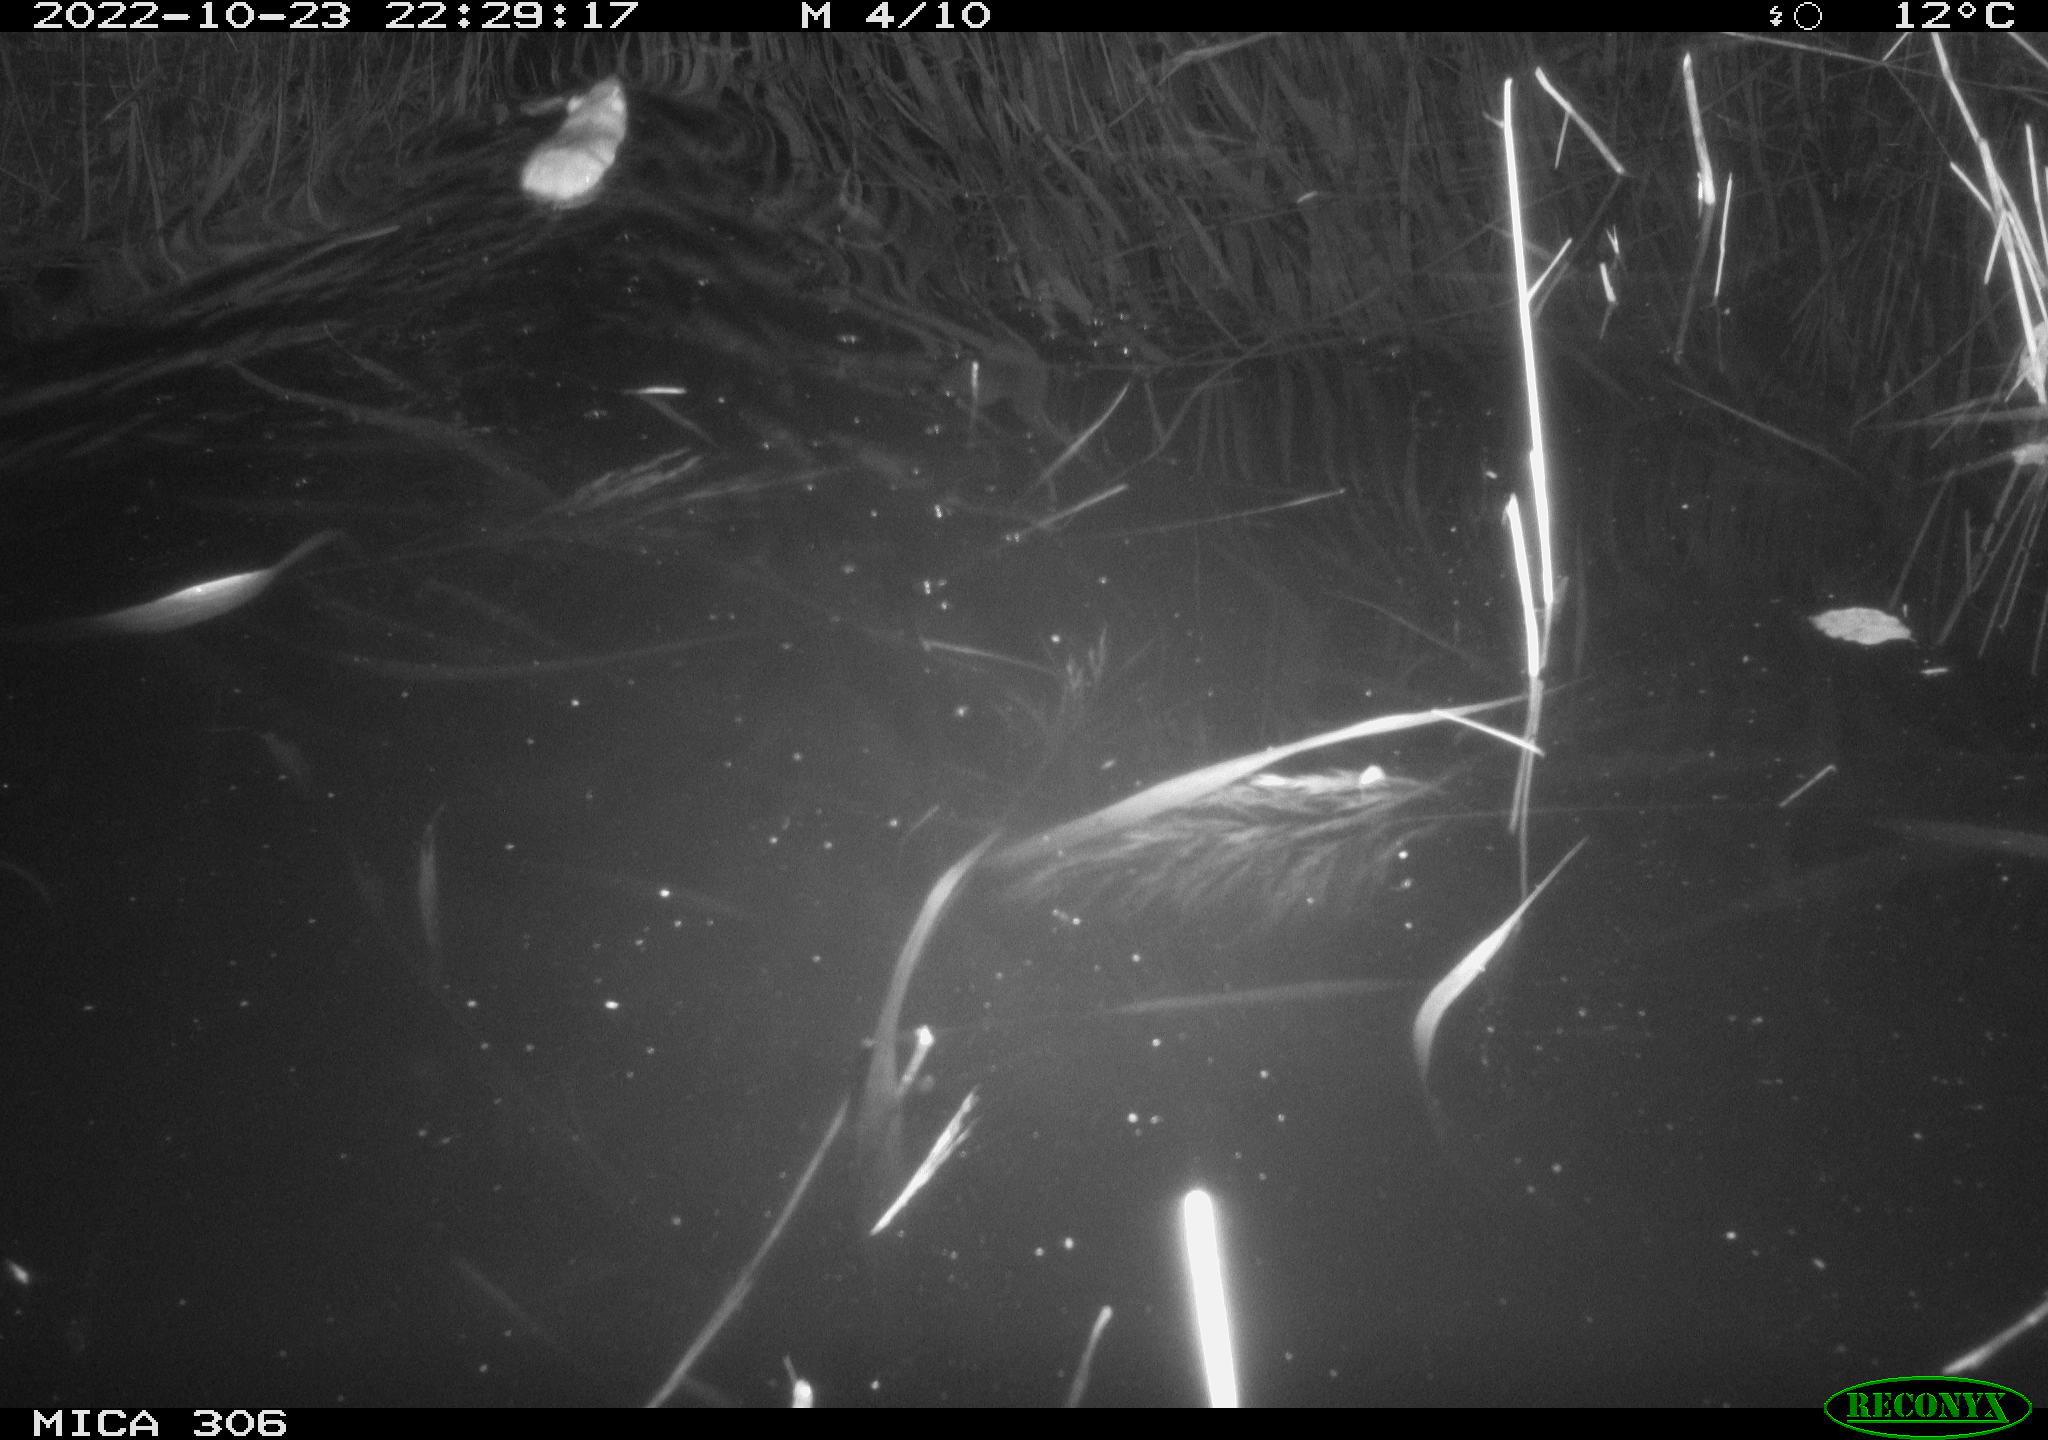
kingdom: Animalia
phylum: Chordata
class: Mammalia
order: Rodentia
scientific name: Rodentia
